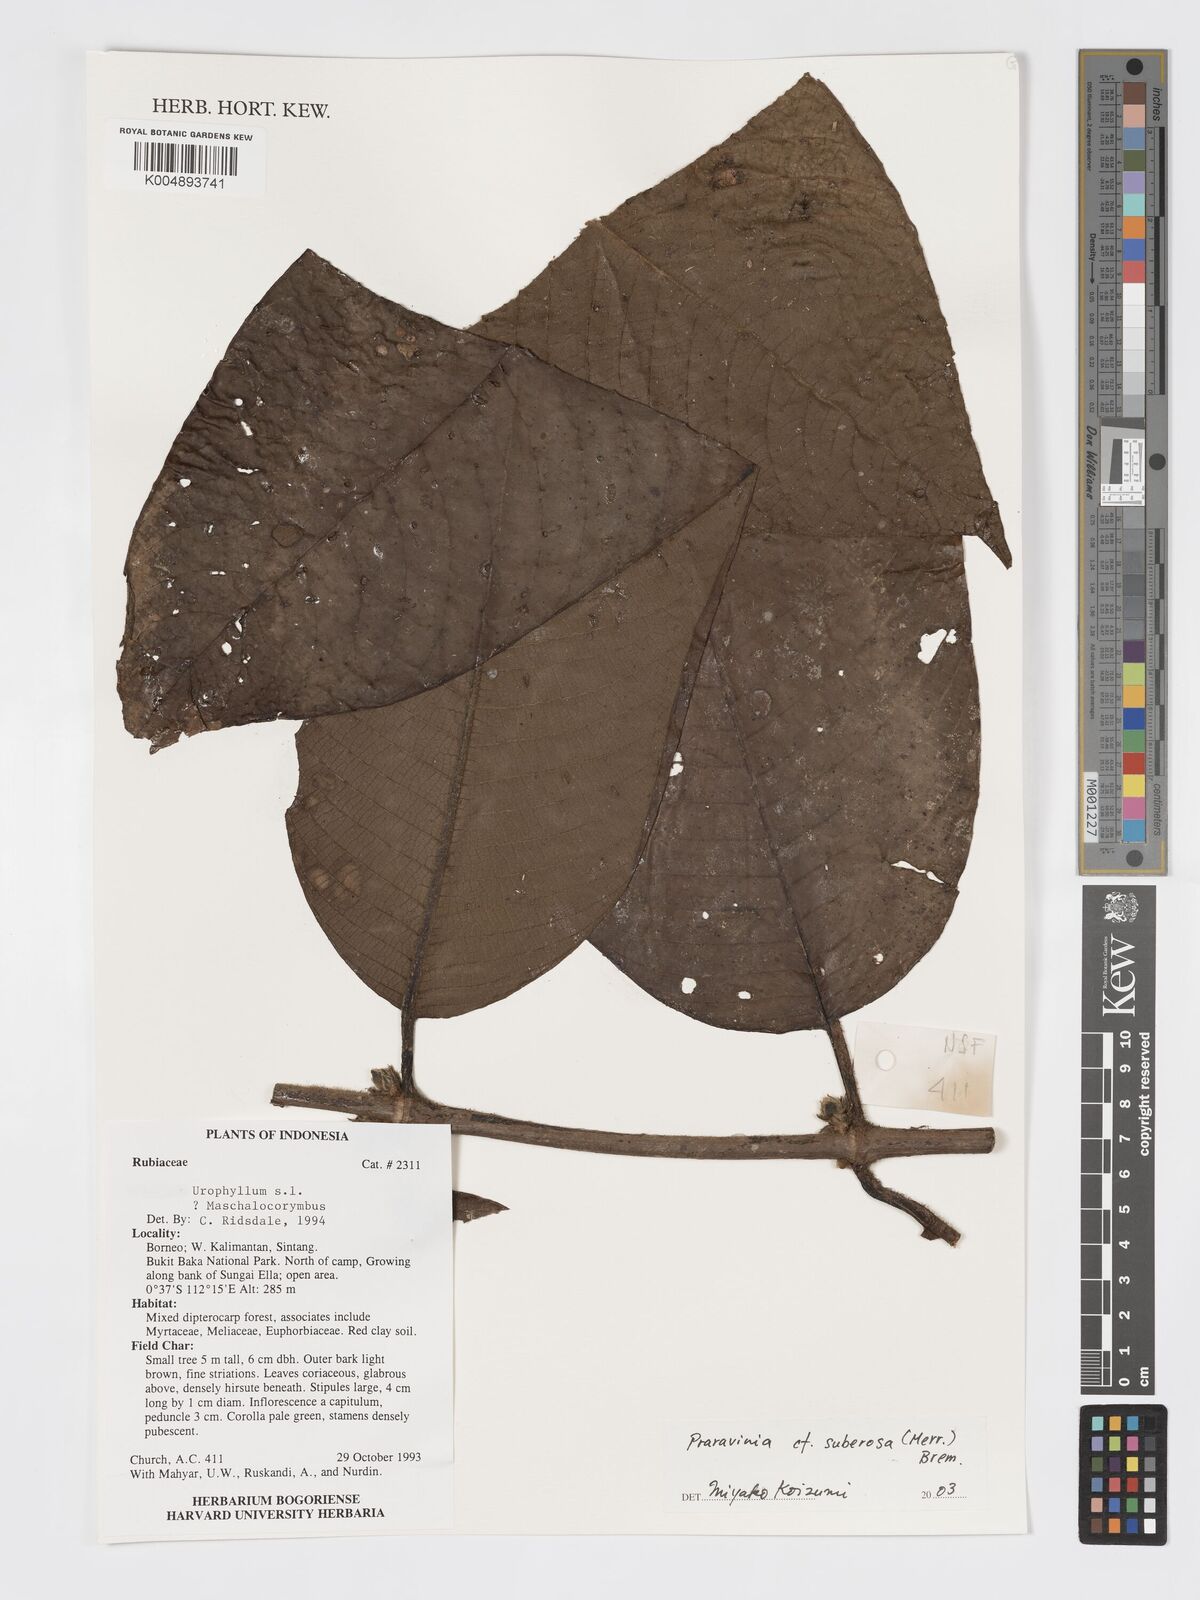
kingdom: Plantae
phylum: Tracheophyta
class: Magnoliopsida
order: Gentianales
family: Rubiaceae
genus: Praravinia
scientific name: Praravinia suberosa
